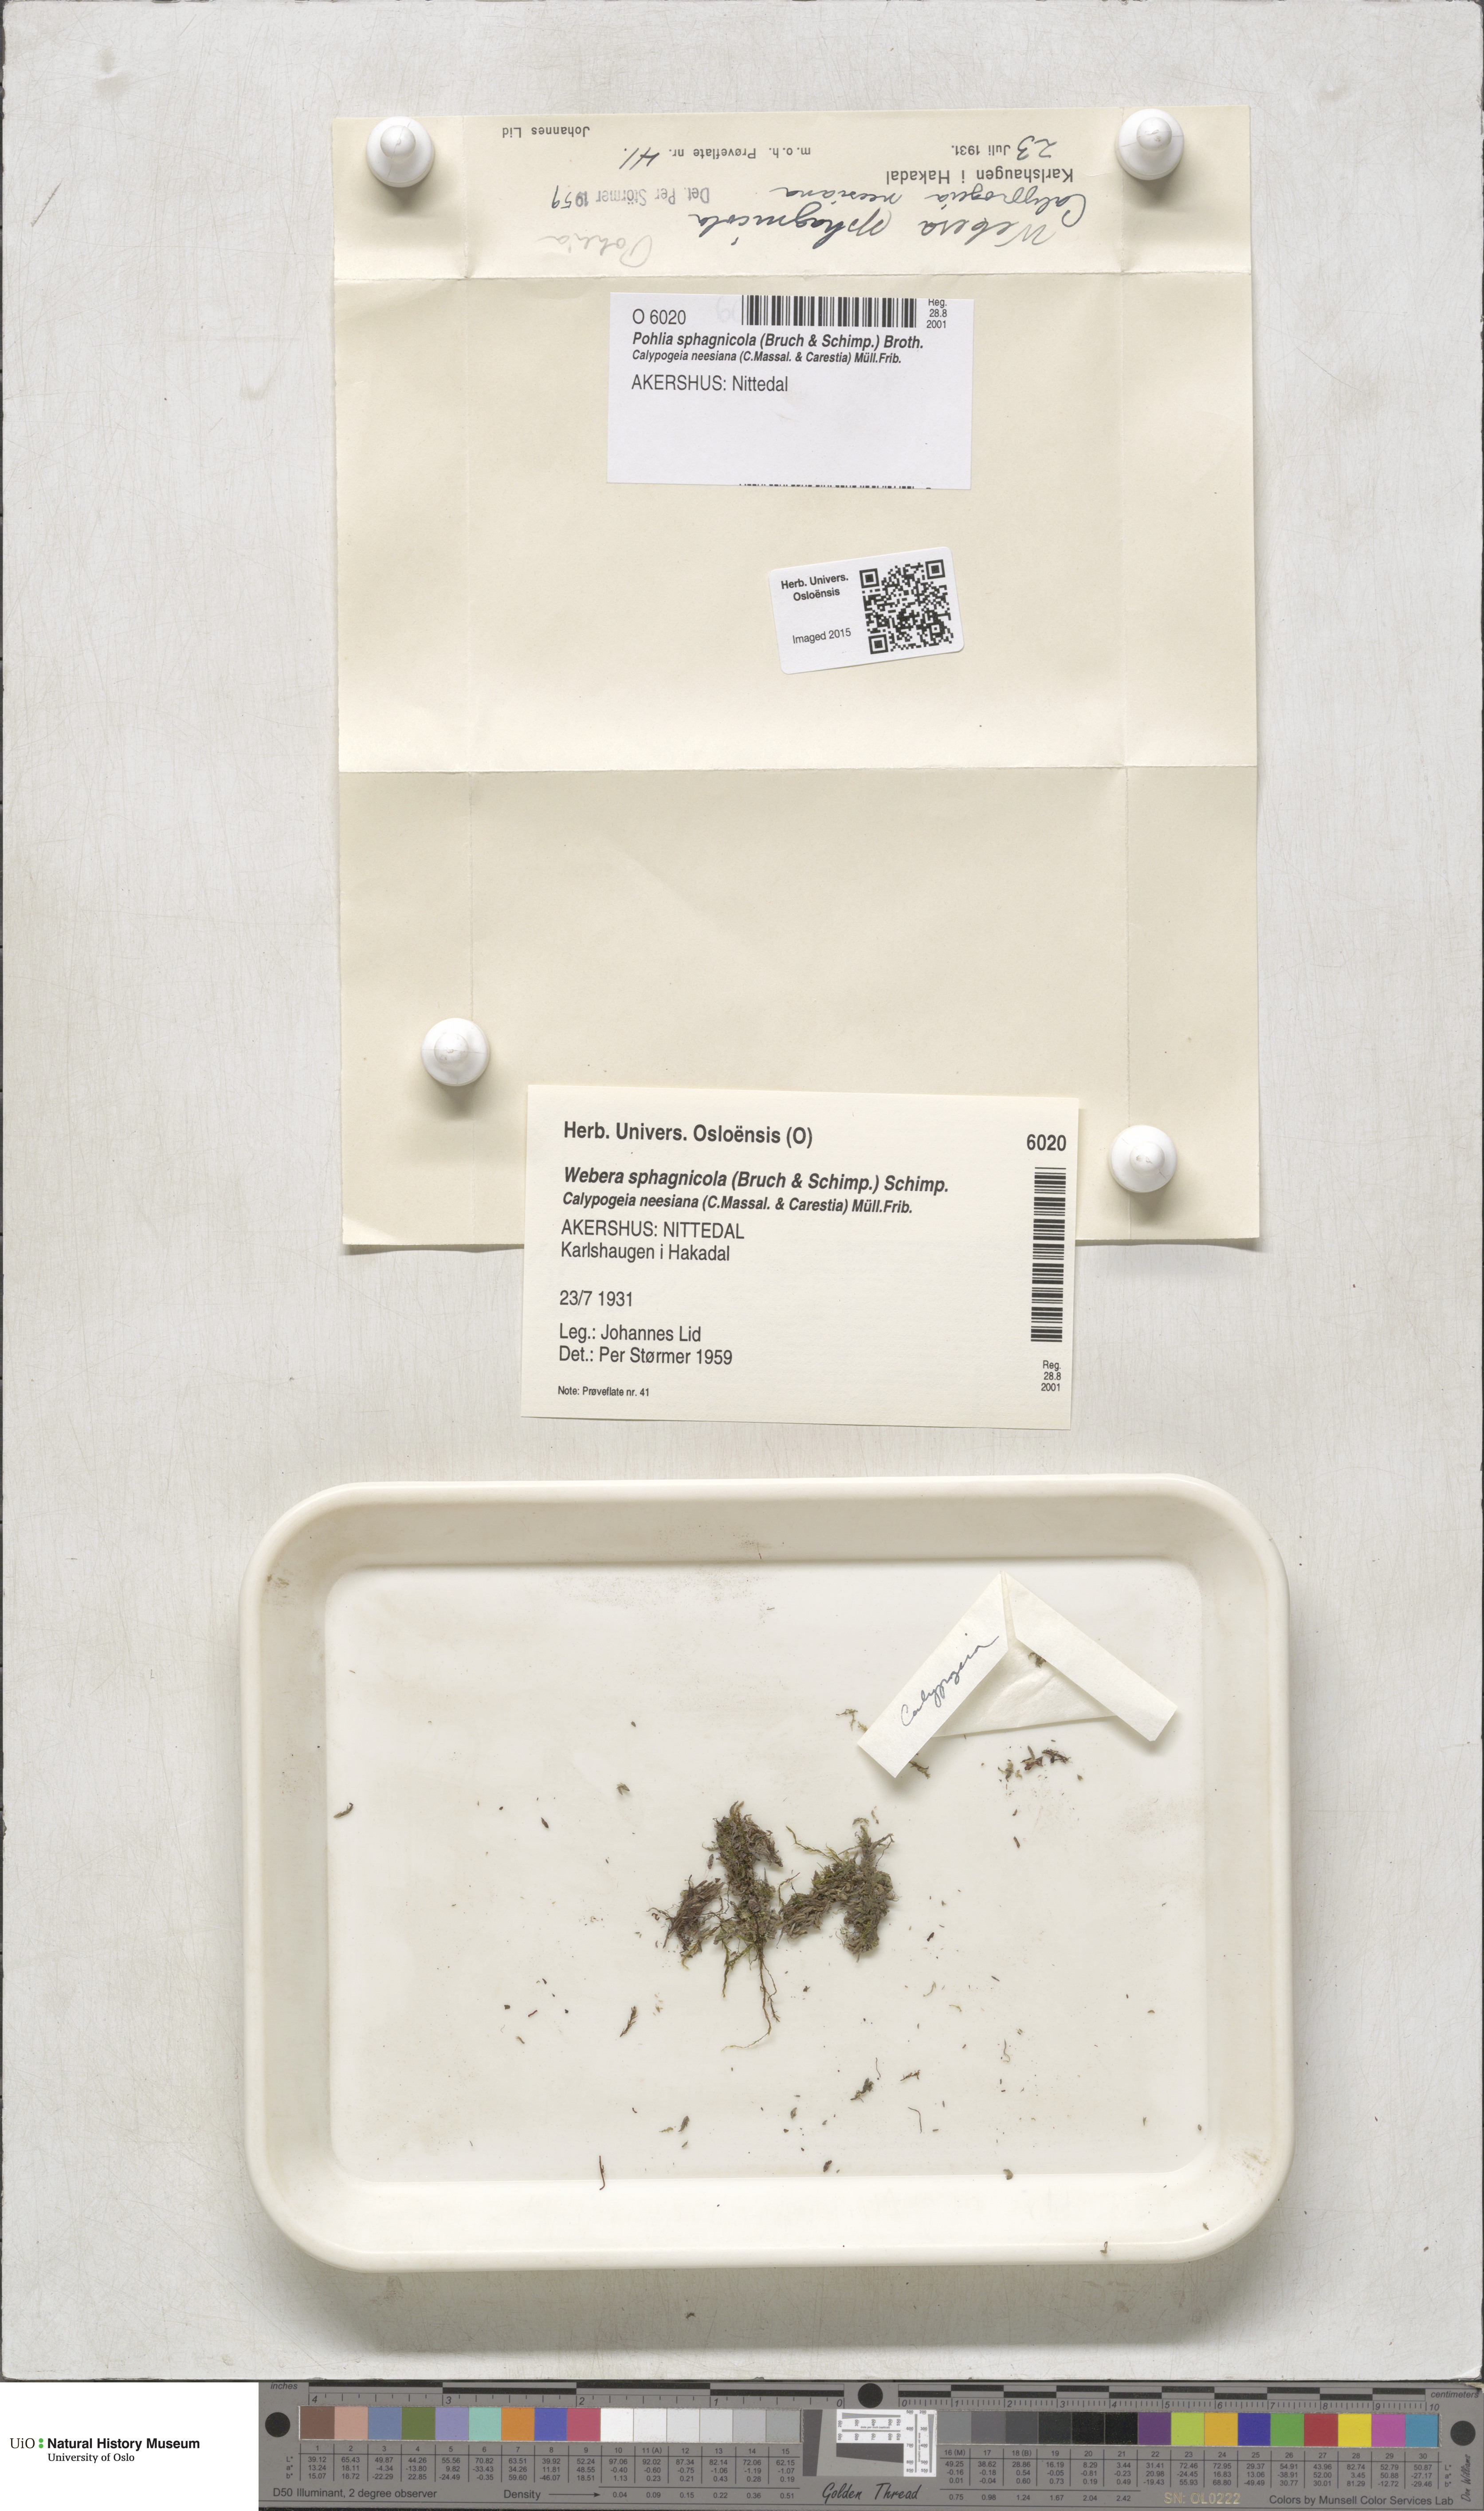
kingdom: Plantae
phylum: Bryophyta
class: Bryopsida
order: Bryales
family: Mniaceae
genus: Pohlia
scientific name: Pohlia sphagnicola
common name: Bog nodding moss
